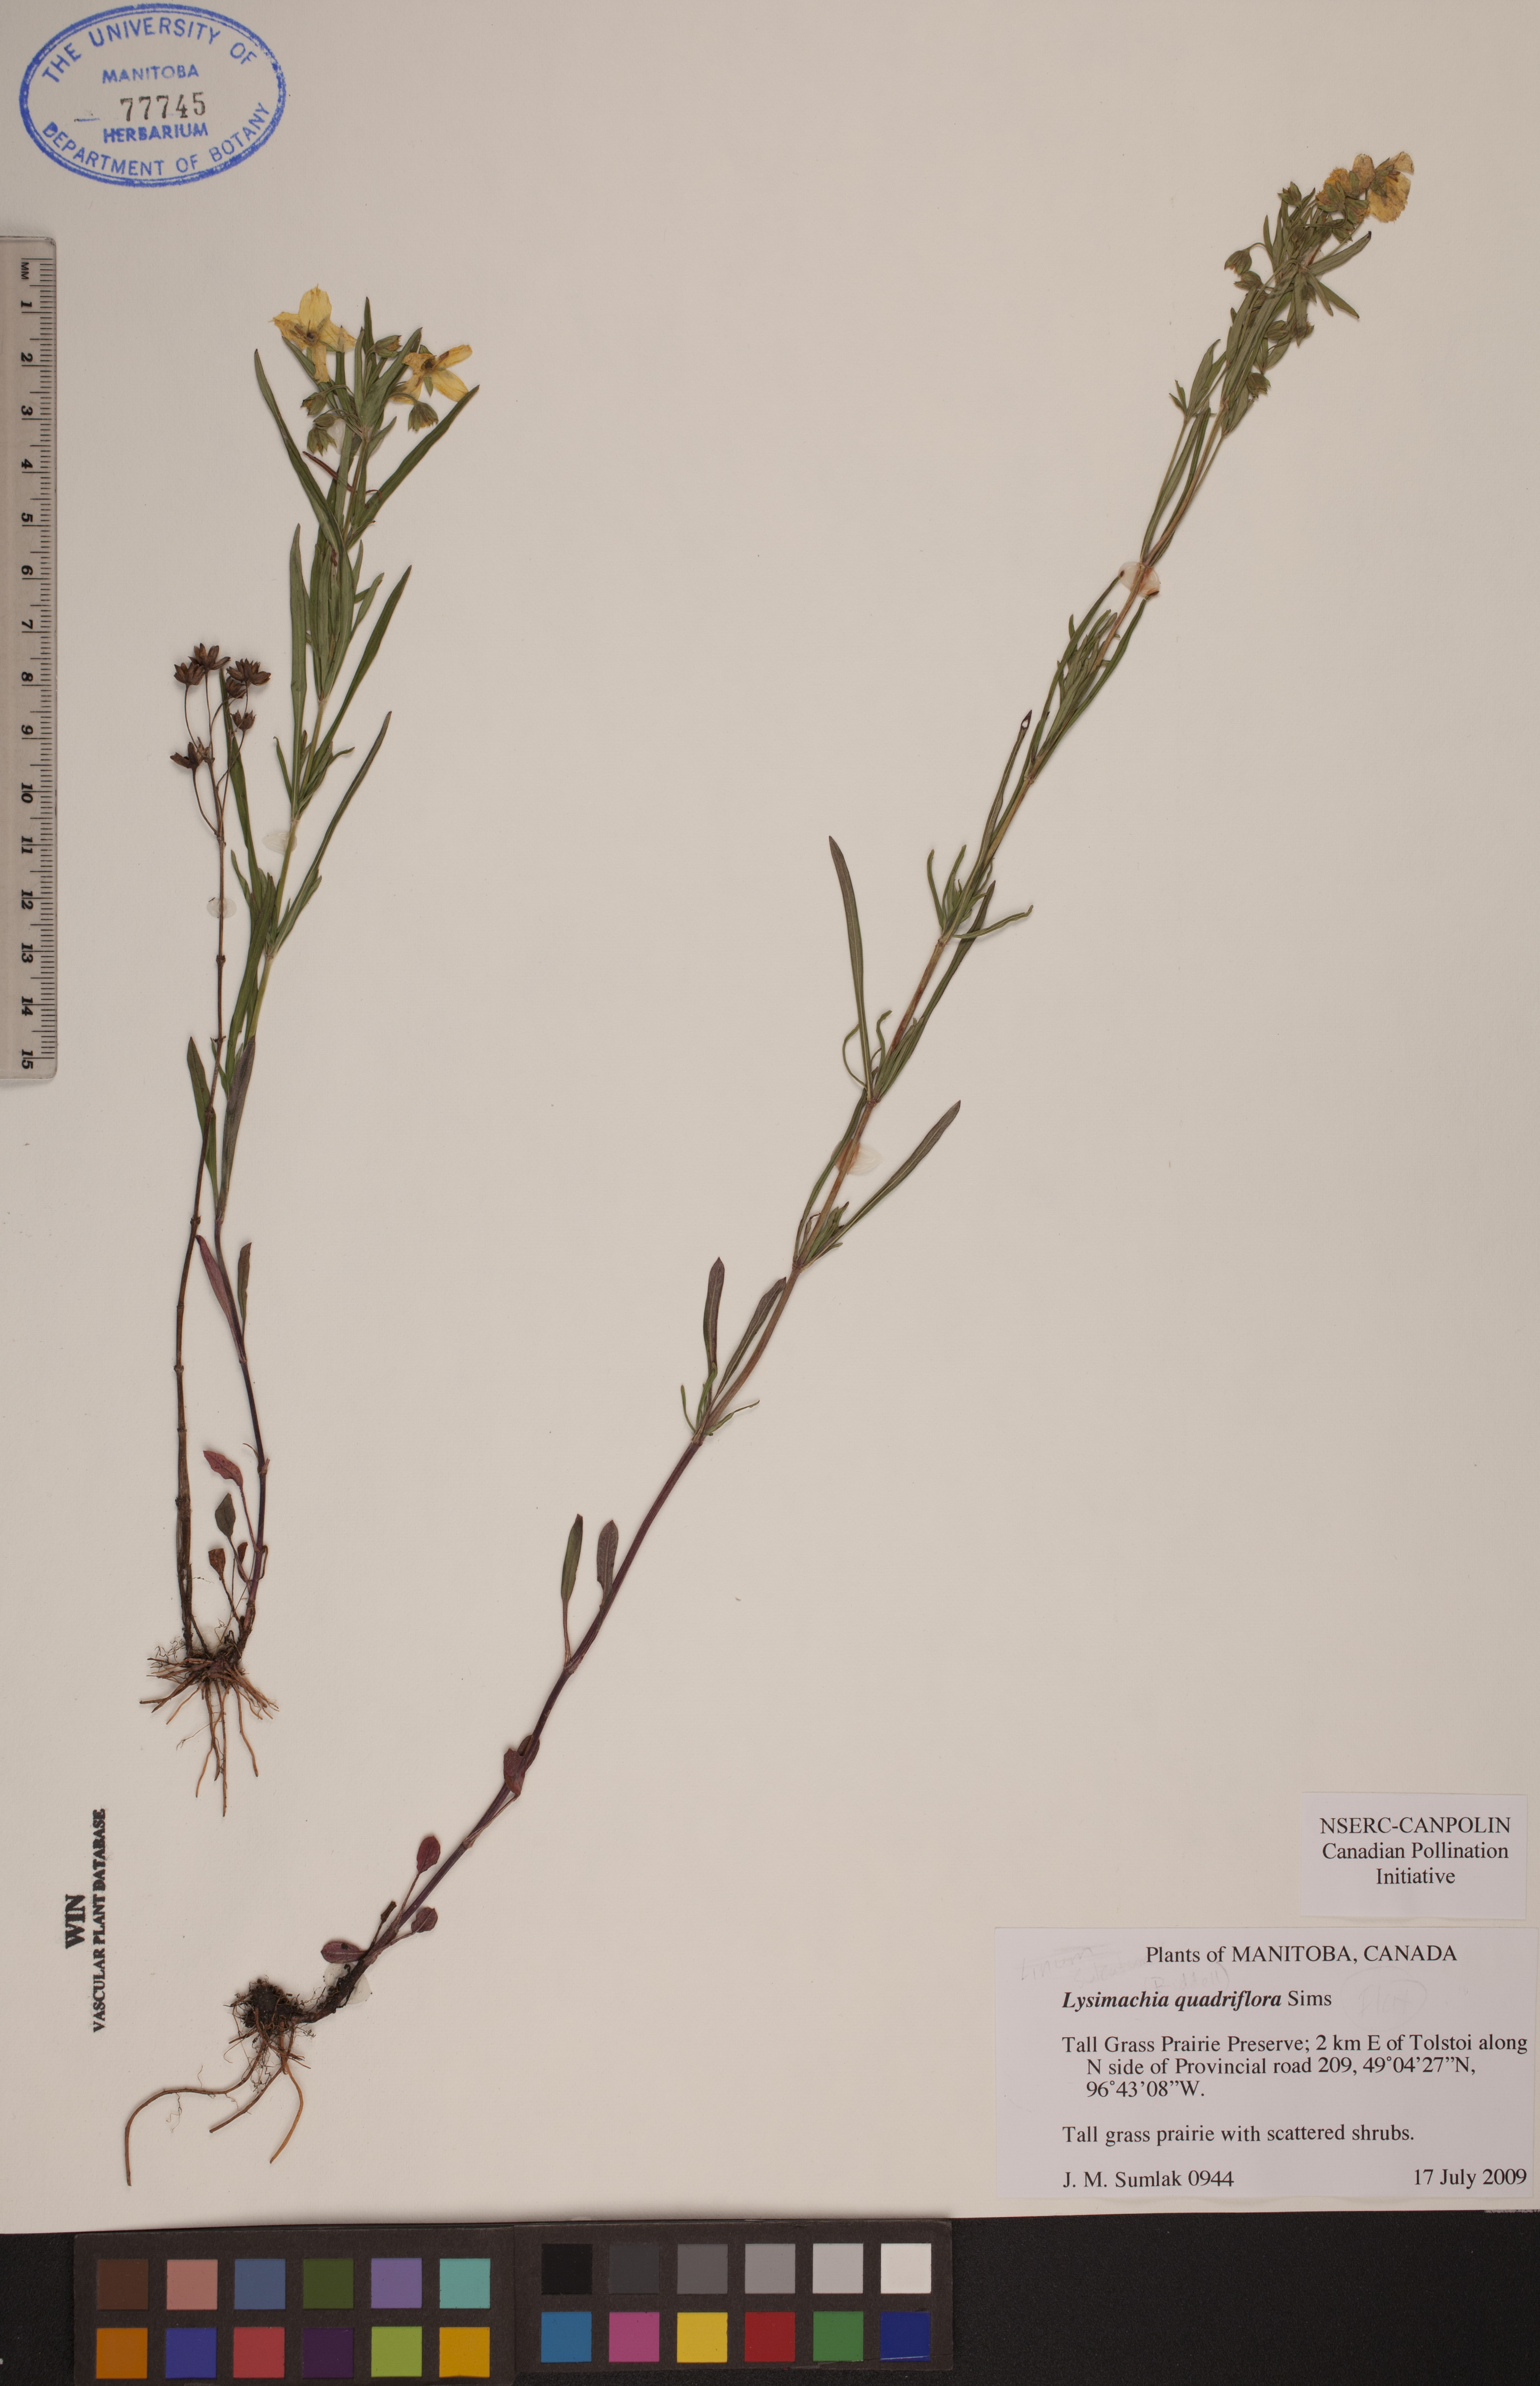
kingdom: Plantae
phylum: Tracheophyta
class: Magnoliopsida
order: Ericales
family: Primulaceae
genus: Lysimachia
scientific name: Lysimachia quadrifolia
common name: Whorled loosestrife
